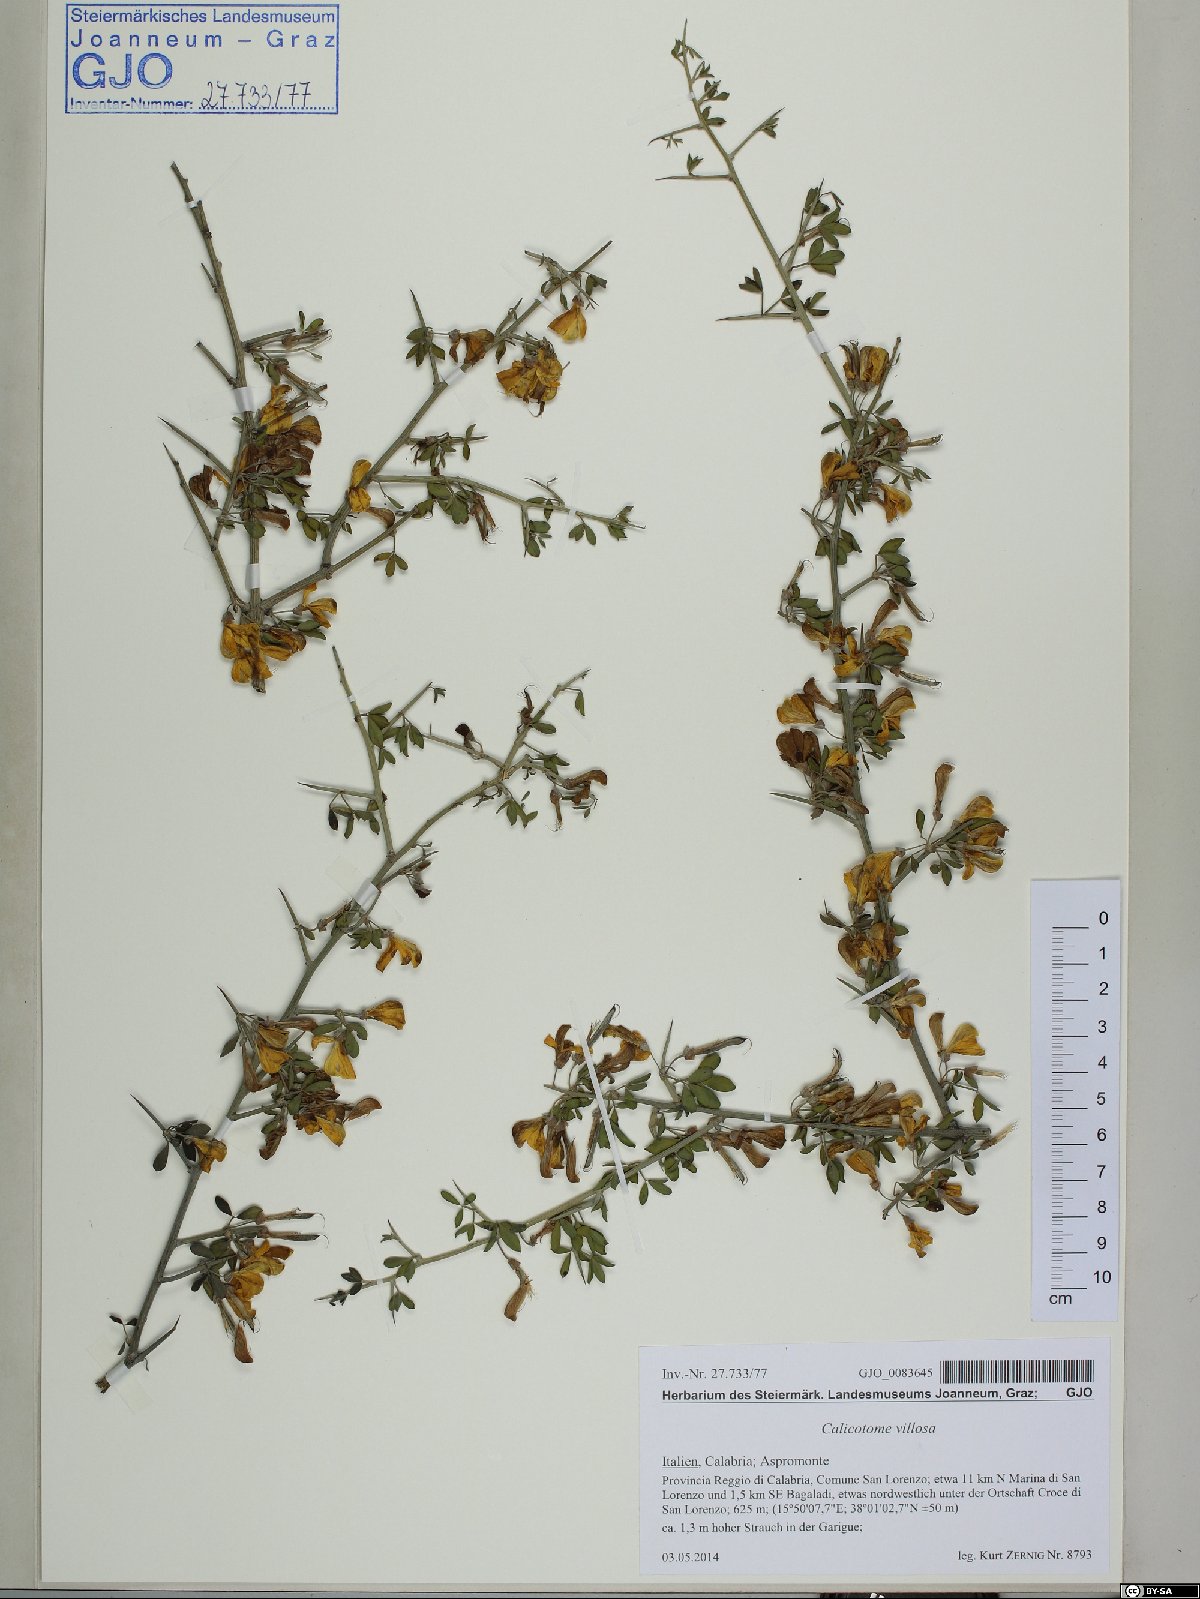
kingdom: Plantae
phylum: Tracheophyta
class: Magnoliopsida
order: Fabales
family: Fabaceae
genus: Calicotome
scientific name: Calicotome villosa
